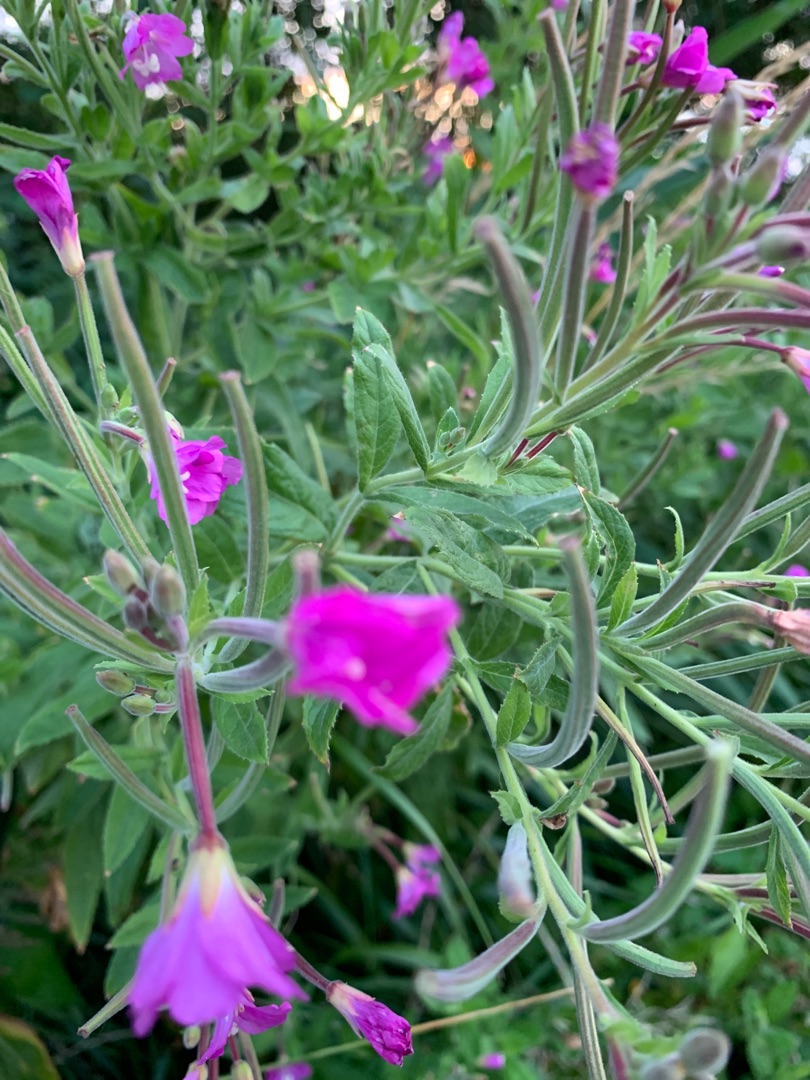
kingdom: Plantae
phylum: Tracheophyta
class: Magnoliopsida
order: Myrtales
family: Onagraceae
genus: Epilobium
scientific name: Epilobium hirsutum
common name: Lådden dueurt
